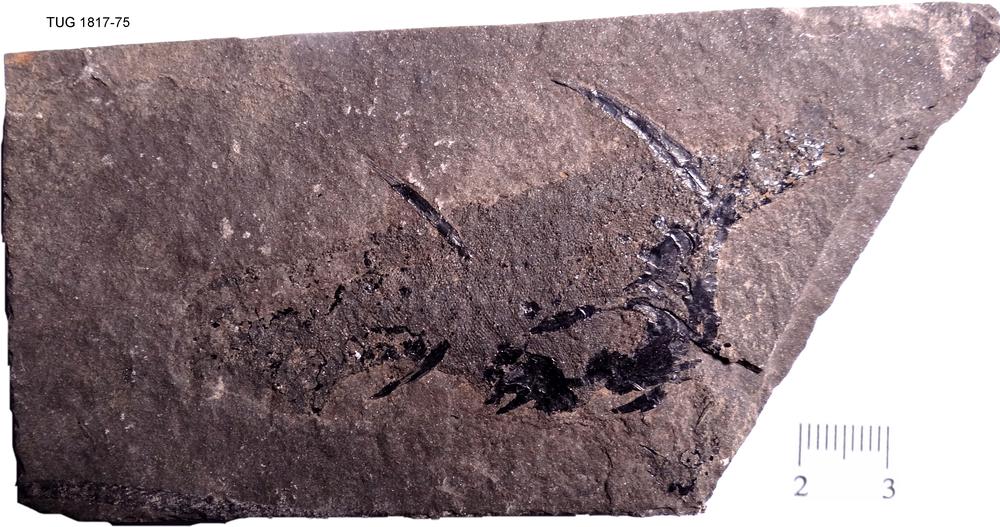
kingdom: Animalia
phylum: Chordata
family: Diplacanthidae
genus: Diplacanthus
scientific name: Diplacanthus crassisimus
